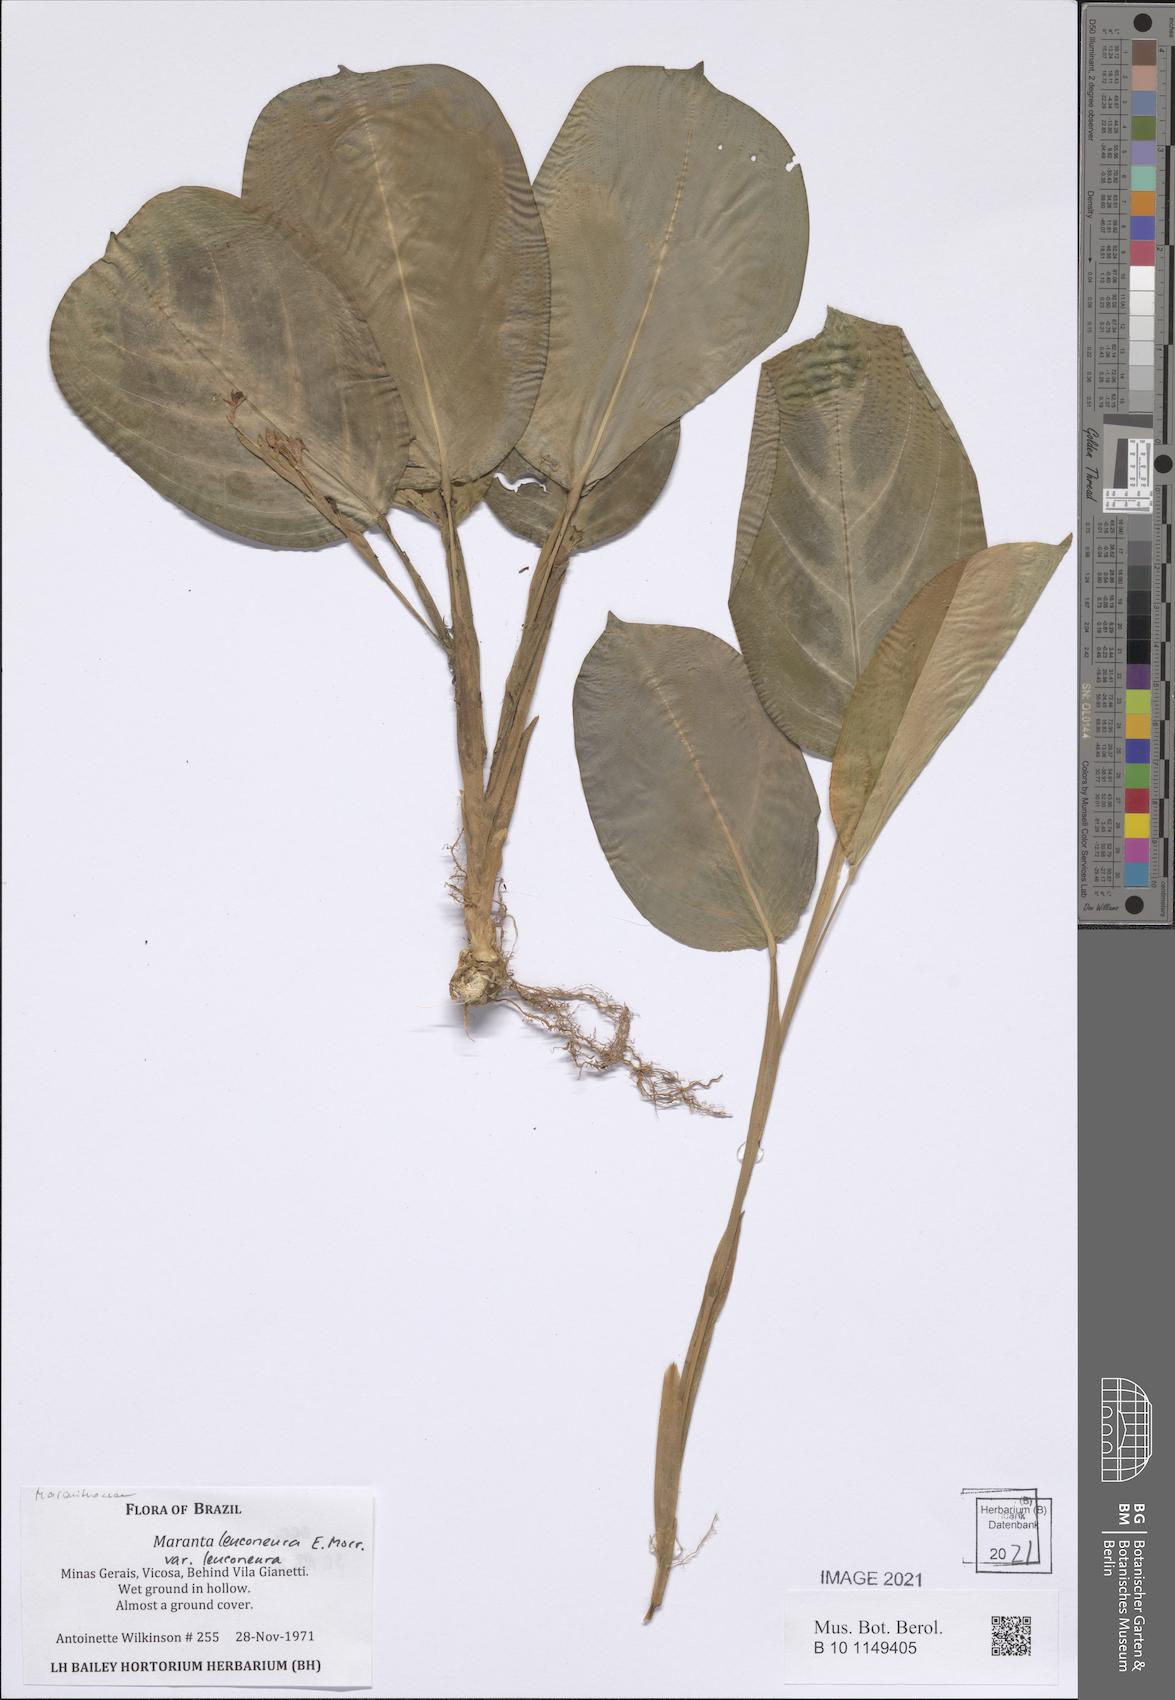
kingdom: Plantae
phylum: Tracheophyta
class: Liliopsida
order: Zingiberales
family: Marantaceae
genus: Maranta
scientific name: Maranta leuconeura
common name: Ten-commandments
